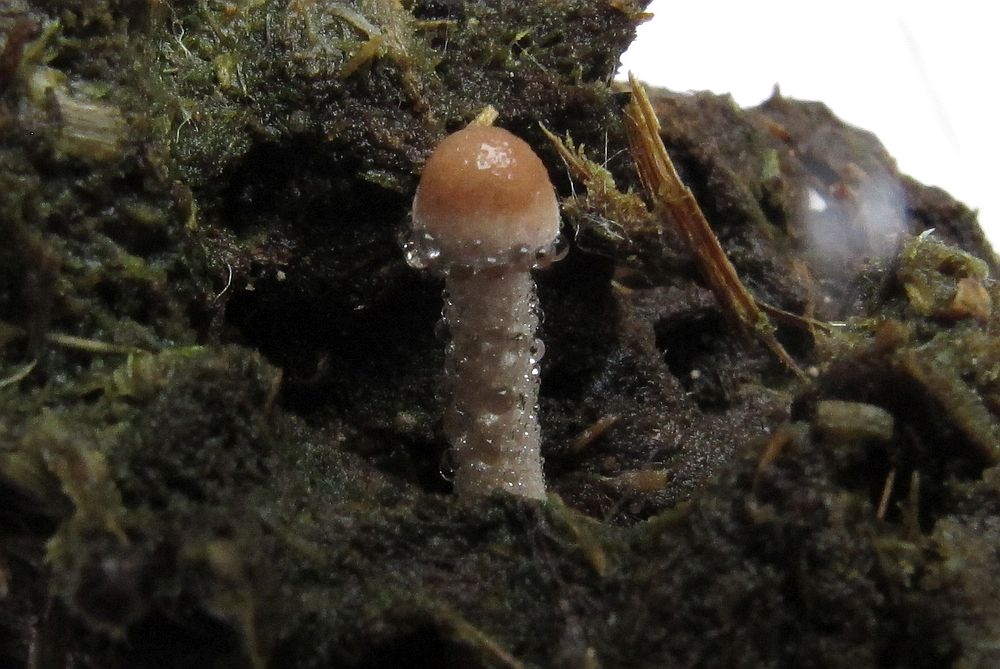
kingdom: Fungi
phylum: Basidiomycota
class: Agaricomycetes
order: Agaricales
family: Bolbitiaceae
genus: Panaeolus
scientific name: Panaeolus subfirmus
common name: fælled-glanshat
